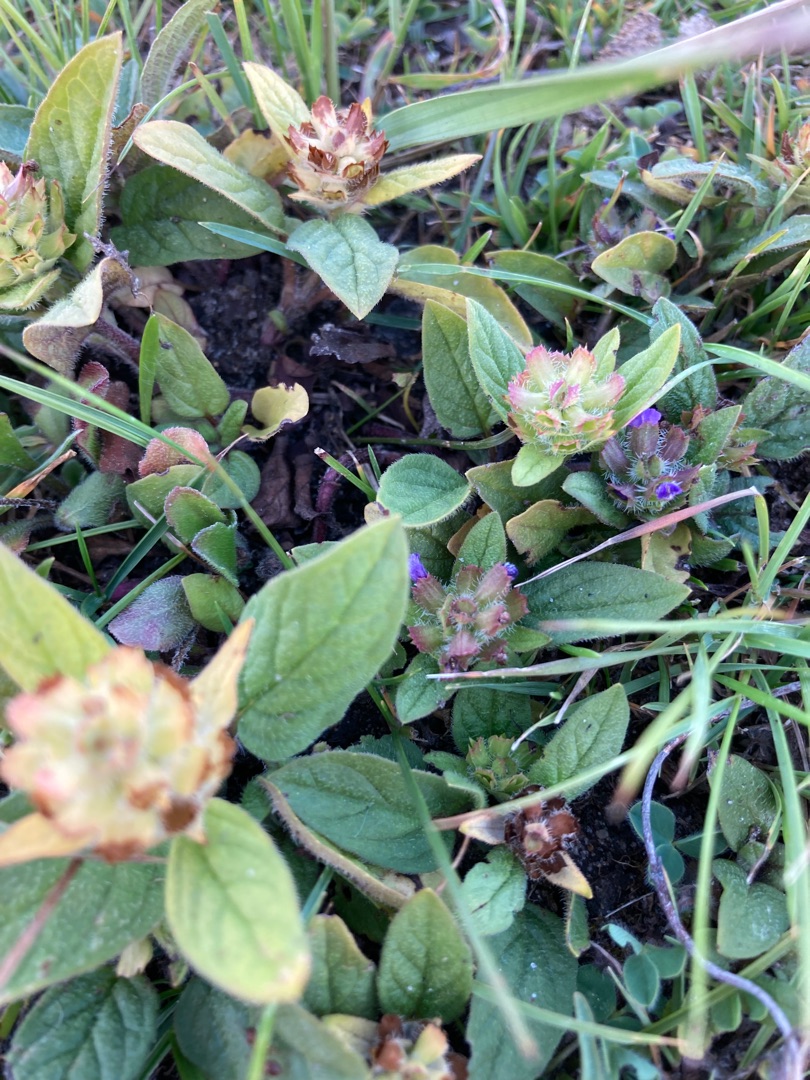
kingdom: Plantae
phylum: Tracheophyta
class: Magnoliopsida
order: Lamiales
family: Lamiaceae
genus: Prunella
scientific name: Prunella vulgaris
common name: Almindelig brunelle
